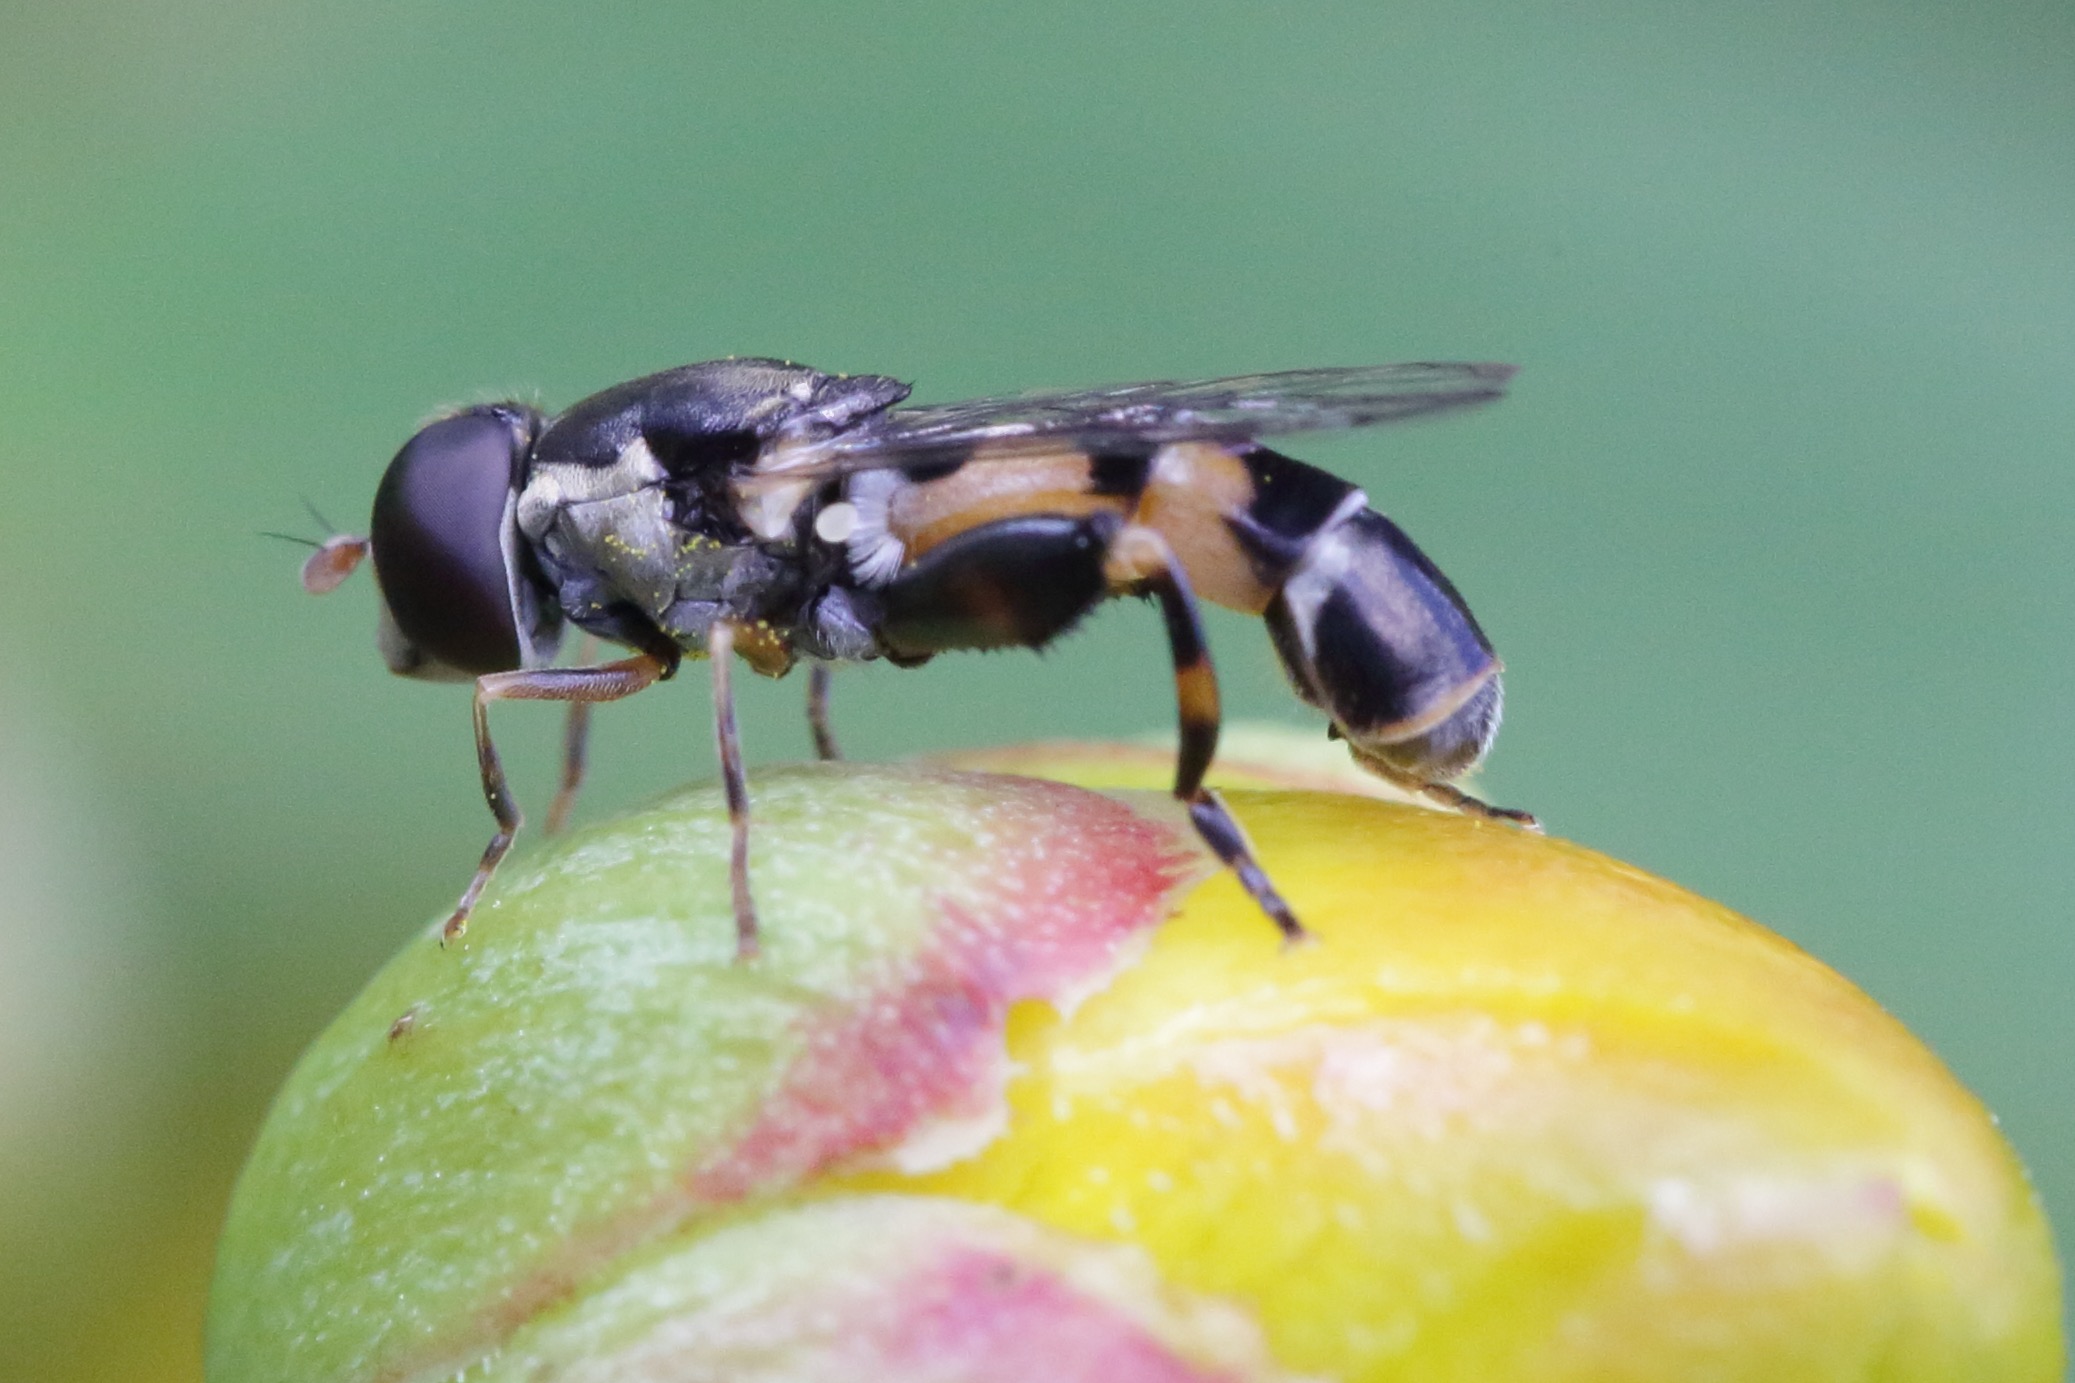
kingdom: Animalia
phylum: Arthropoda
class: Insecta
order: Diptera
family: Syrphidae
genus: Syritta
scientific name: Syritta pipiens
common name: Kompost-svirreflue
